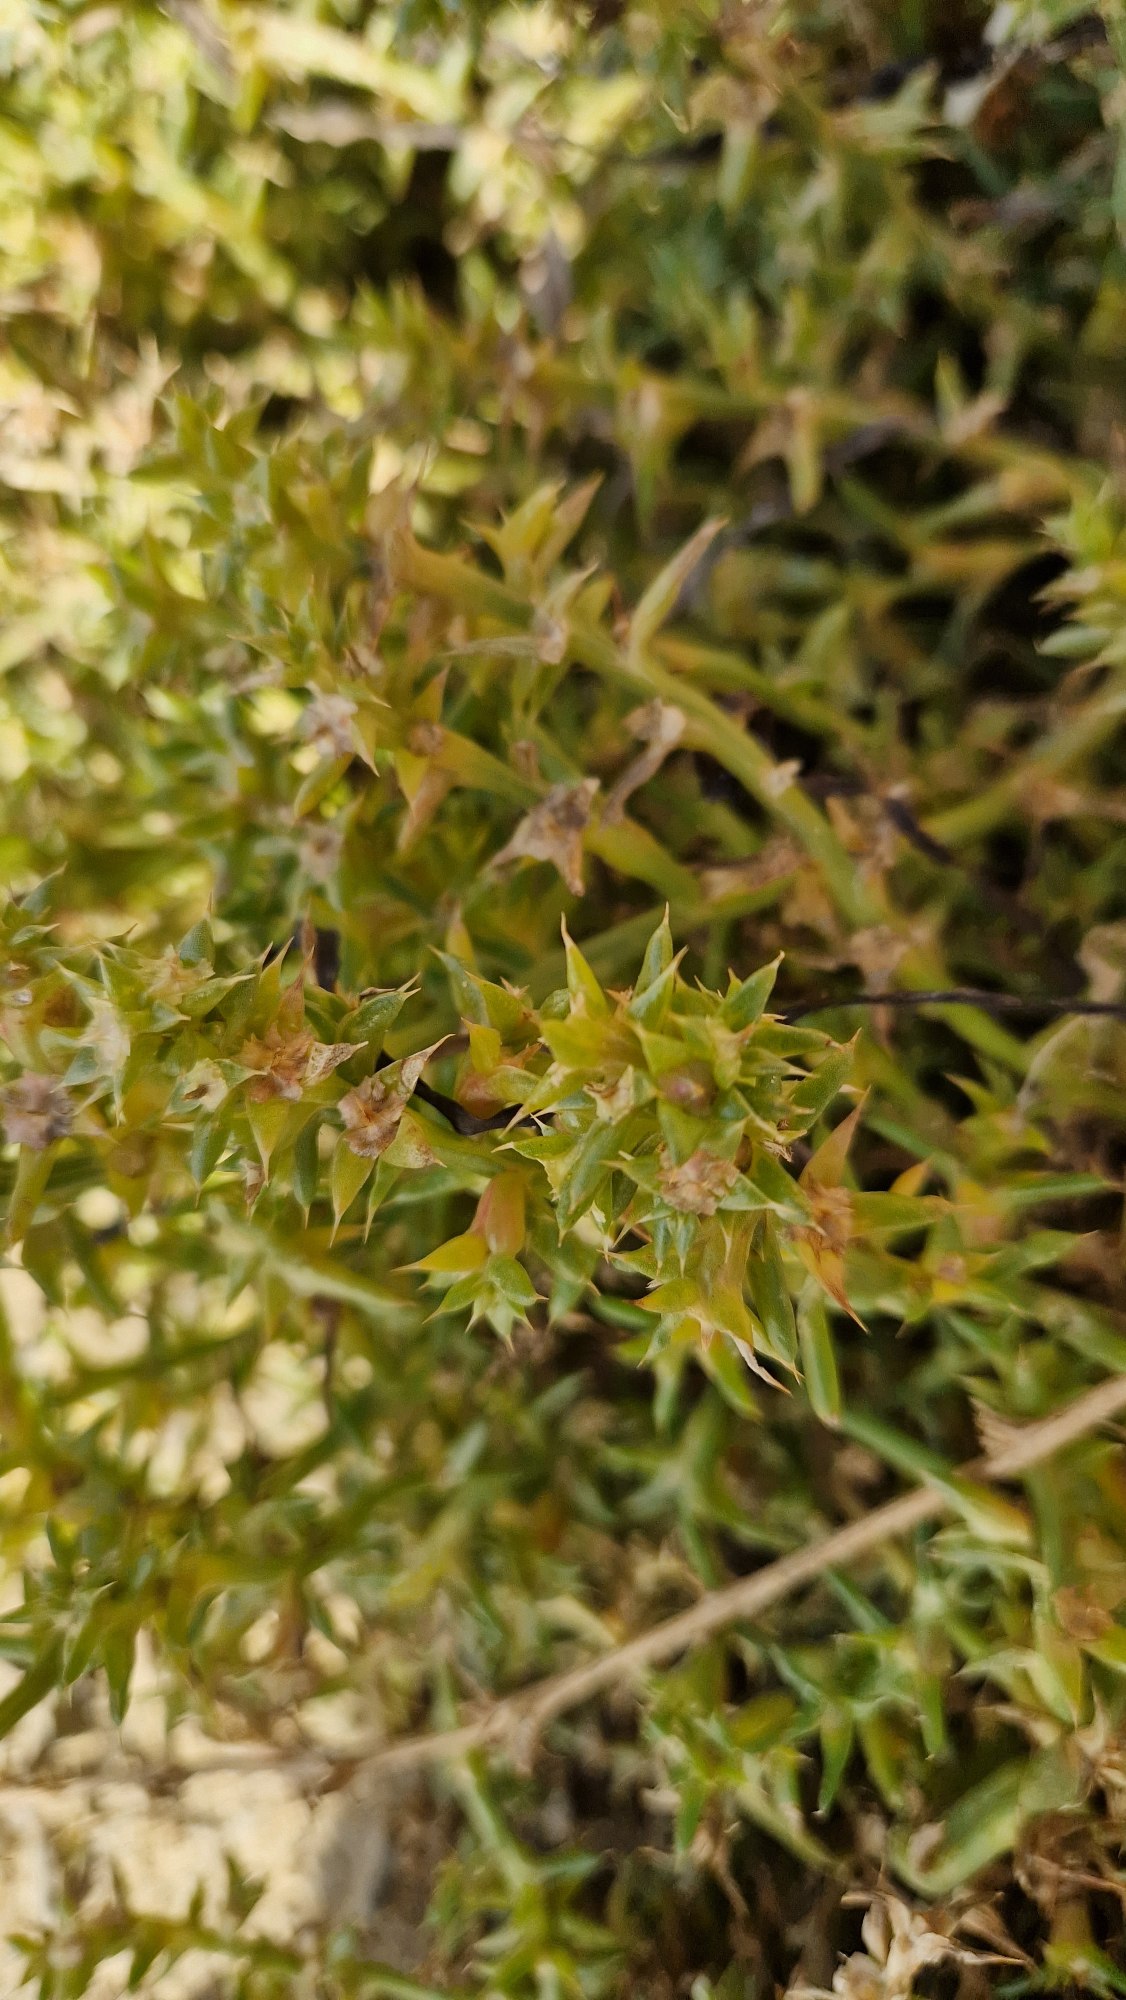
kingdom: Plantae
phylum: Tracheophyta
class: Magnoliopsida
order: Caryophyllales
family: Amaranthaceae
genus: Salsola
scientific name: Salsola kali
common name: Sodaurt
